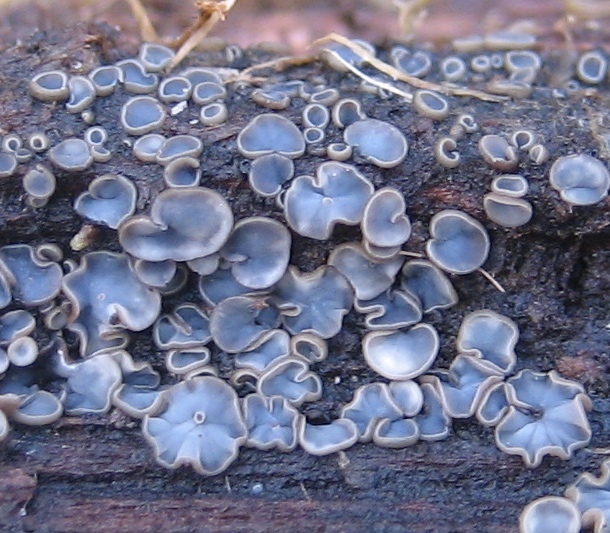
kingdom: Fungi
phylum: Ascomycota
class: Leotiomycetes
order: Helotiales
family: Mollisiaceae
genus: Mollisia
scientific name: Mollisia
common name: gråskive
